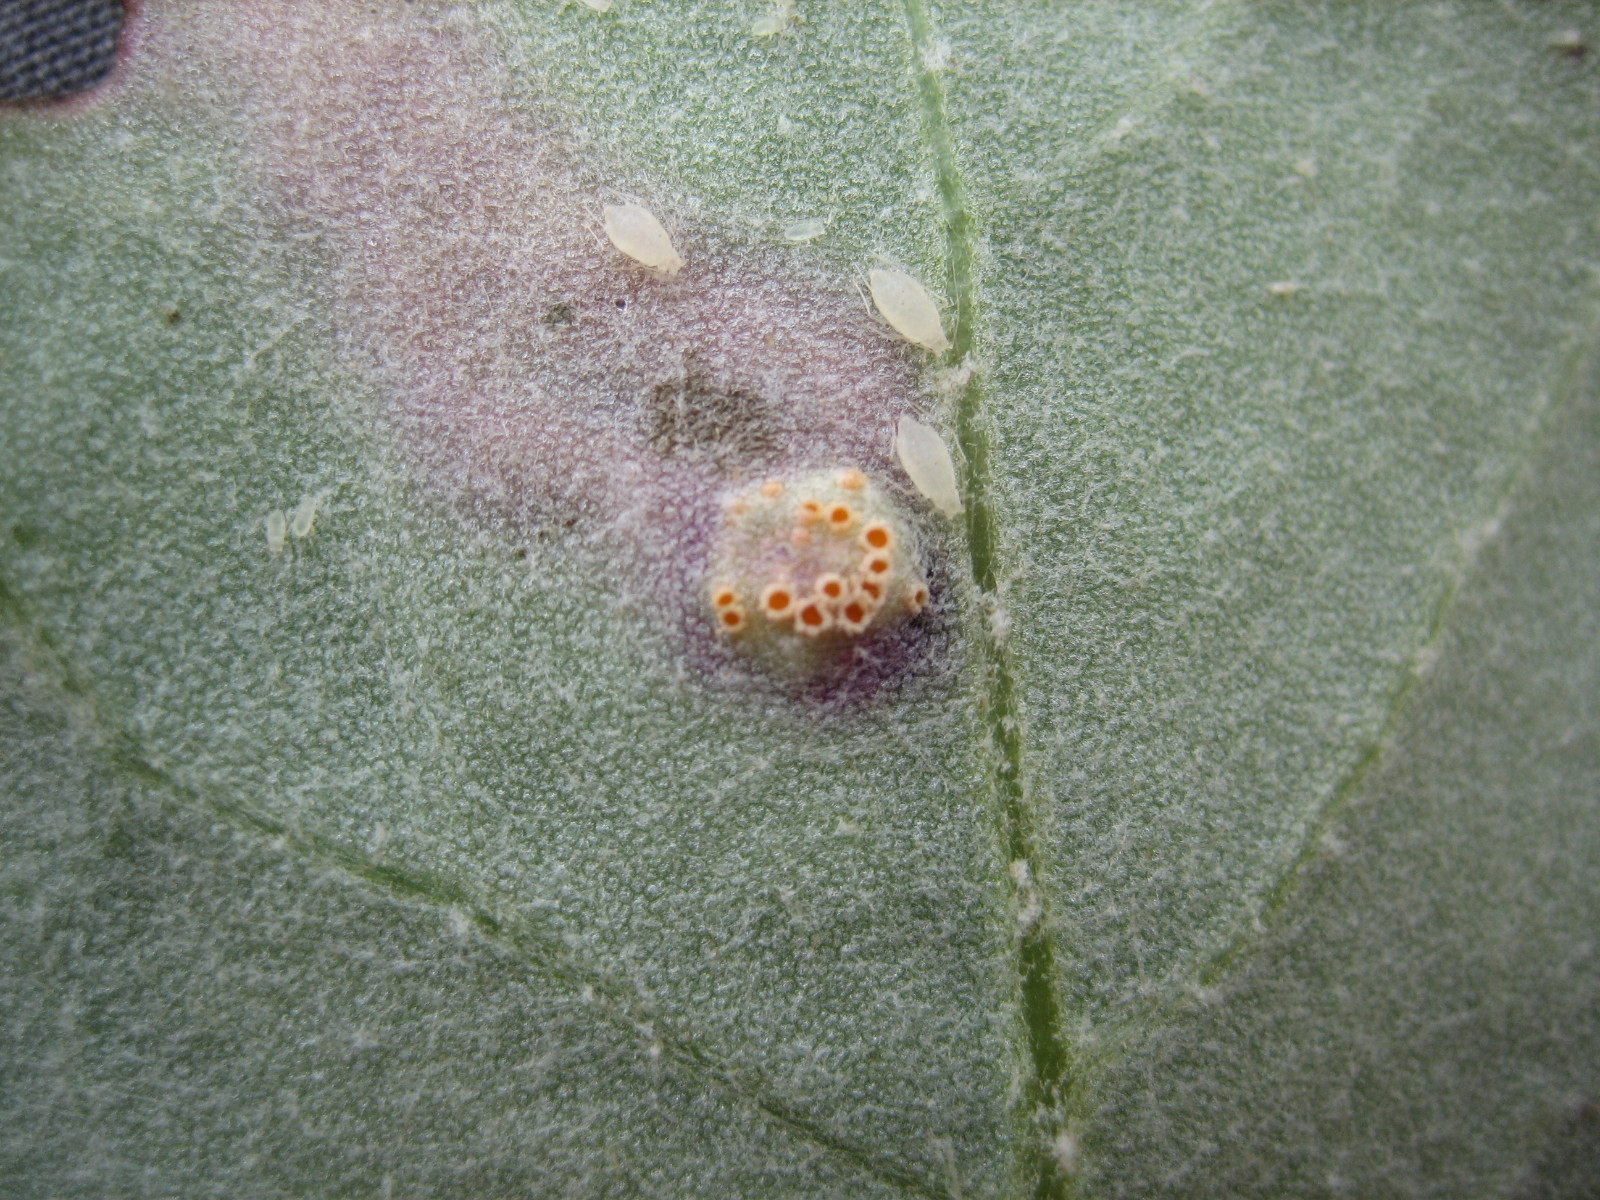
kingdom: Fungi
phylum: Basidiomycota
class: Pucciniomycetes
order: Pucciniales
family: Pucciniaceae
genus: Puccinia
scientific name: Puccinia poarum
